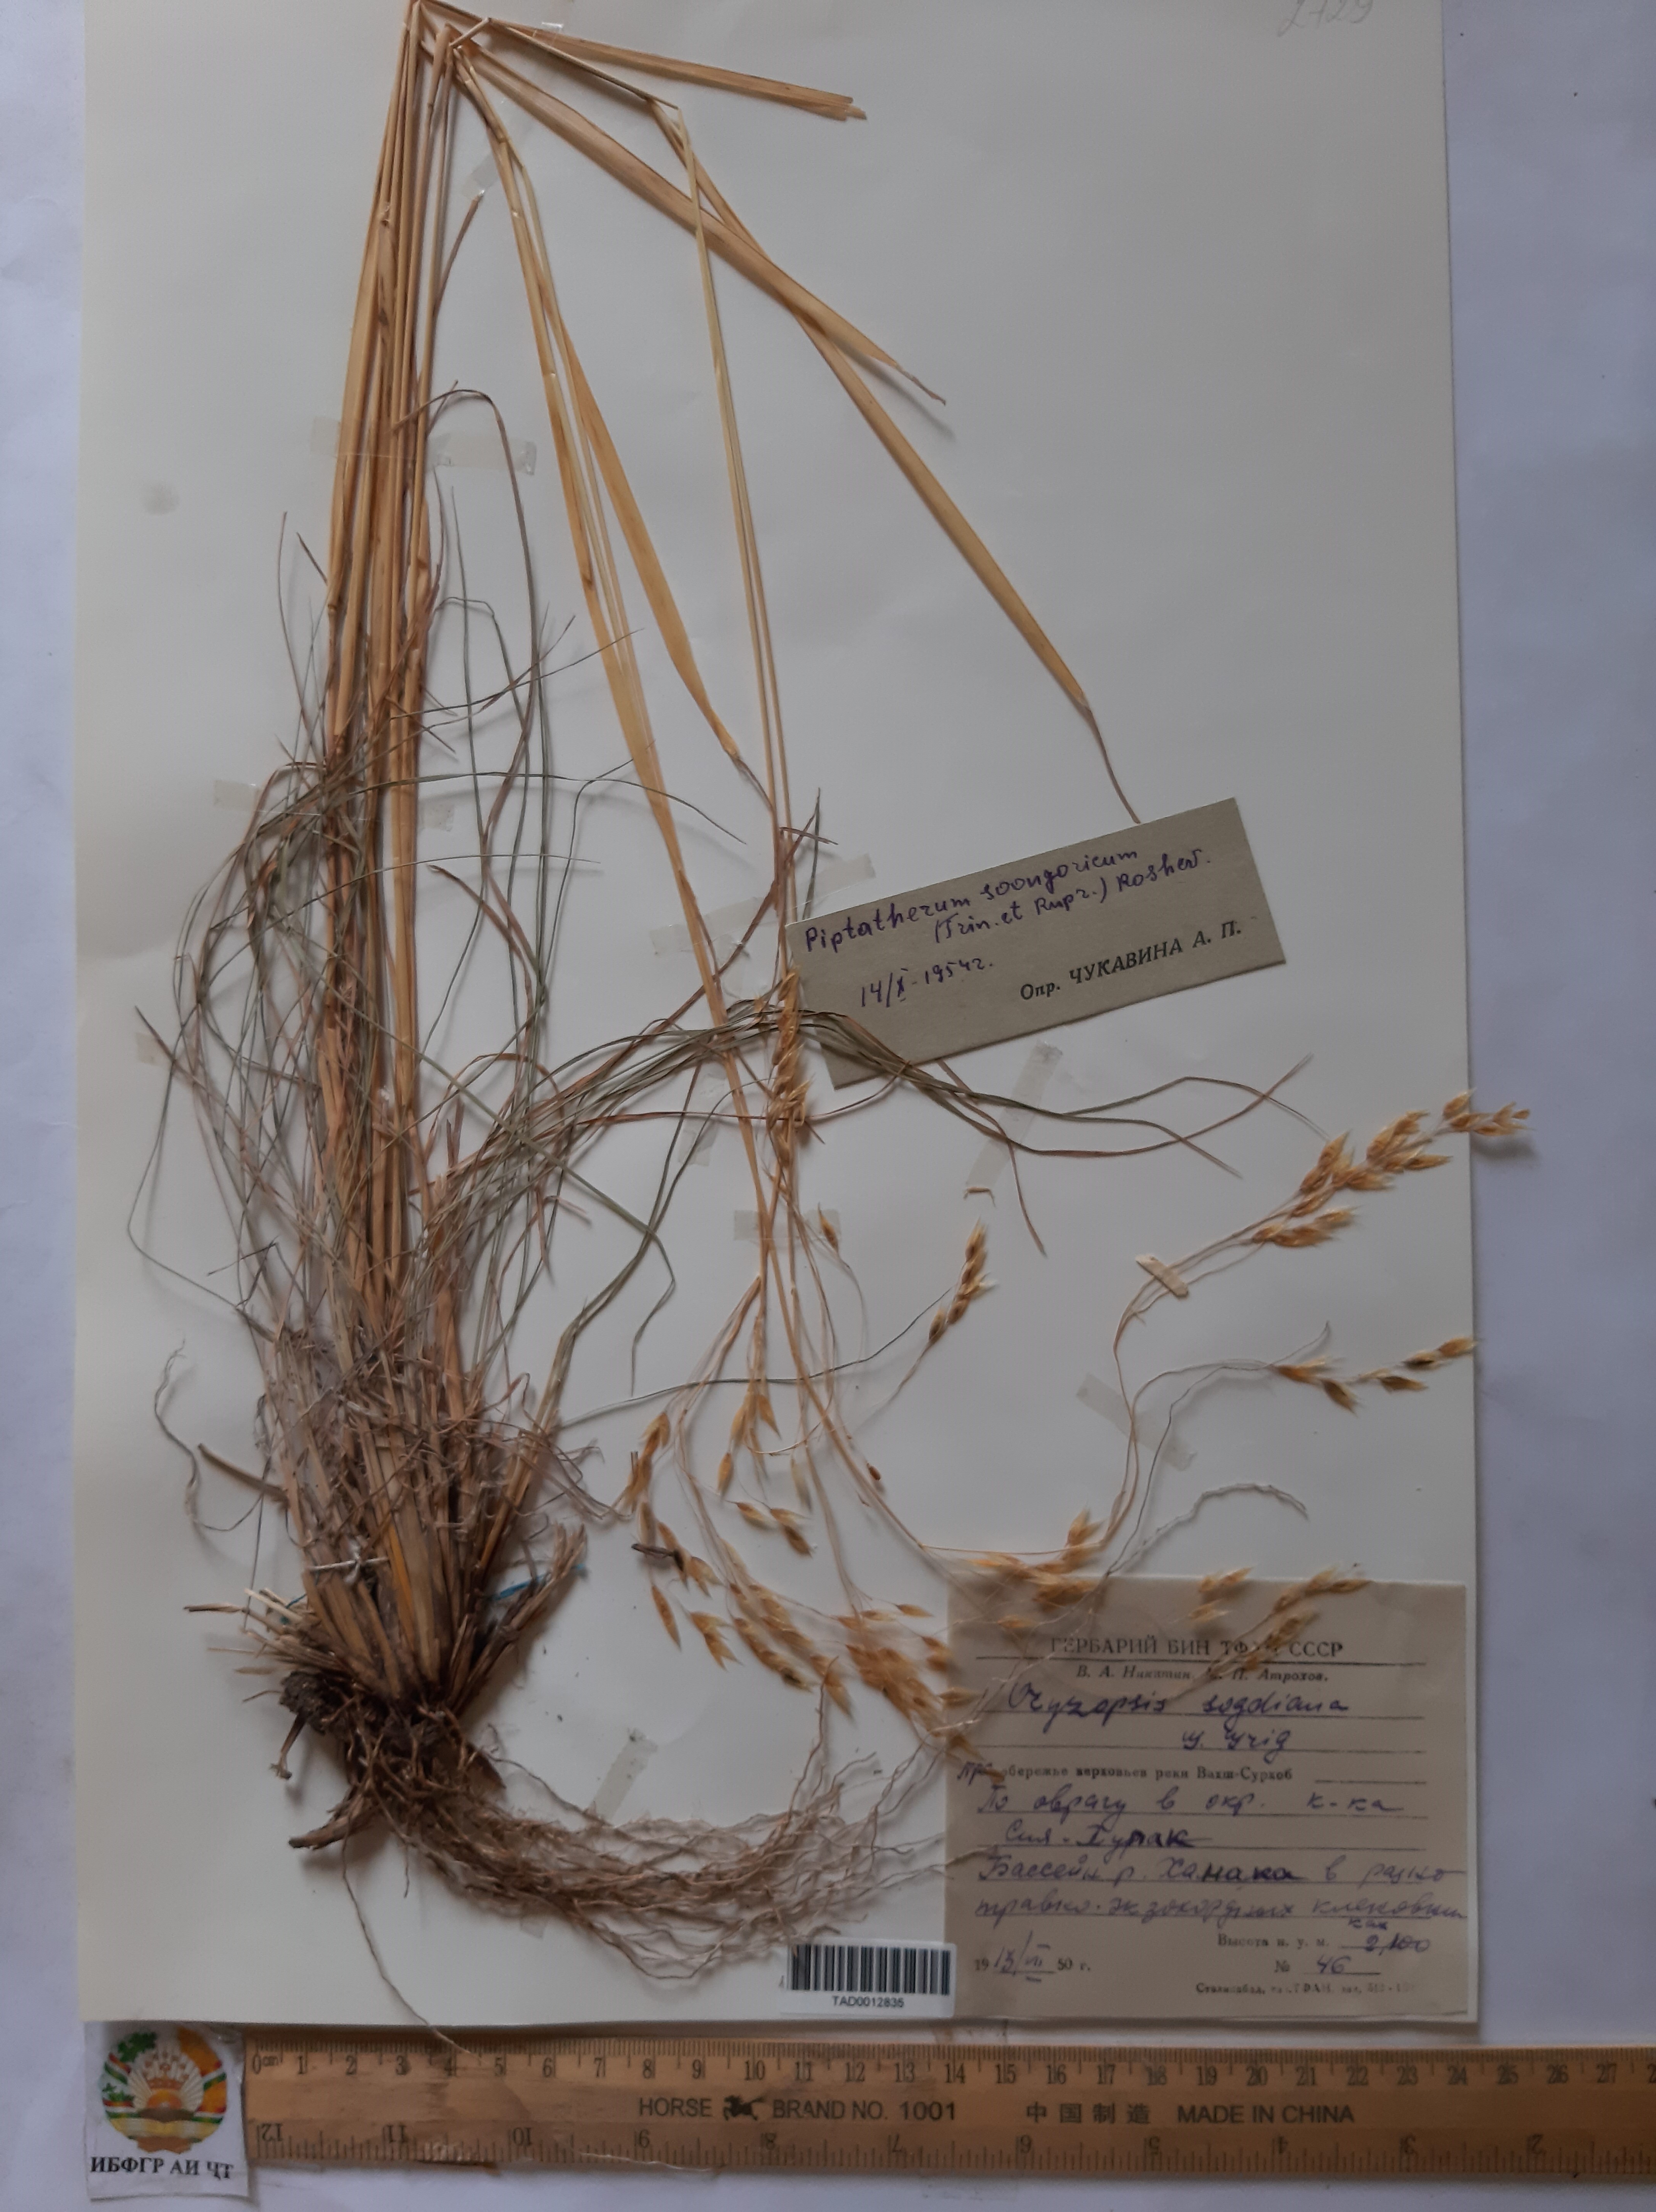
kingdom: Plantae
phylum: Tracheophyta
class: Liliopsida
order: Poales
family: Poaceae
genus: Piptatherum
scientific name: Piptatherum songaricum
